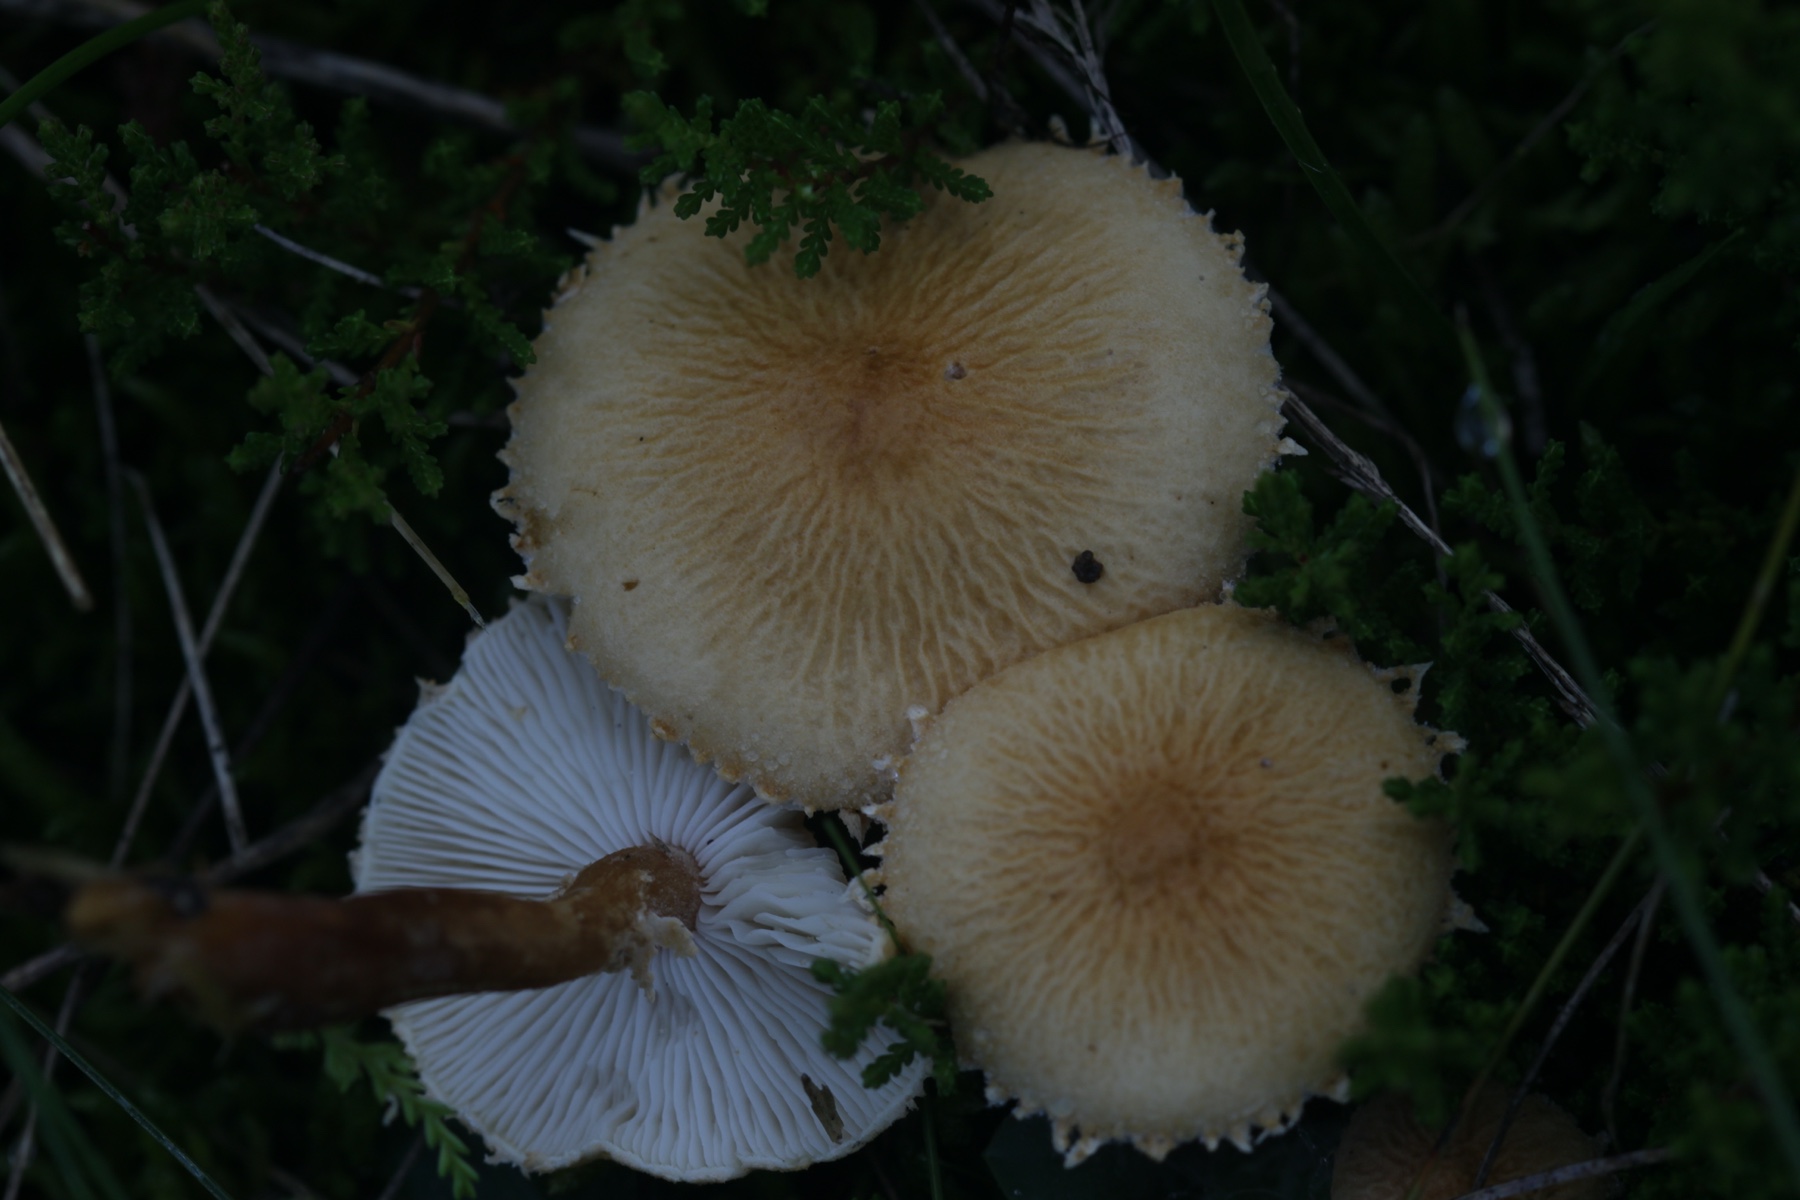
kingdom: Fungi
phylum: Basidiomycota
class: Agaricomycetes
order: Agaricales
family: Tricholomataceae
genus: Cystoderma
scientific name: Cystoderma amianthinum
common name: okkergul grynhat
